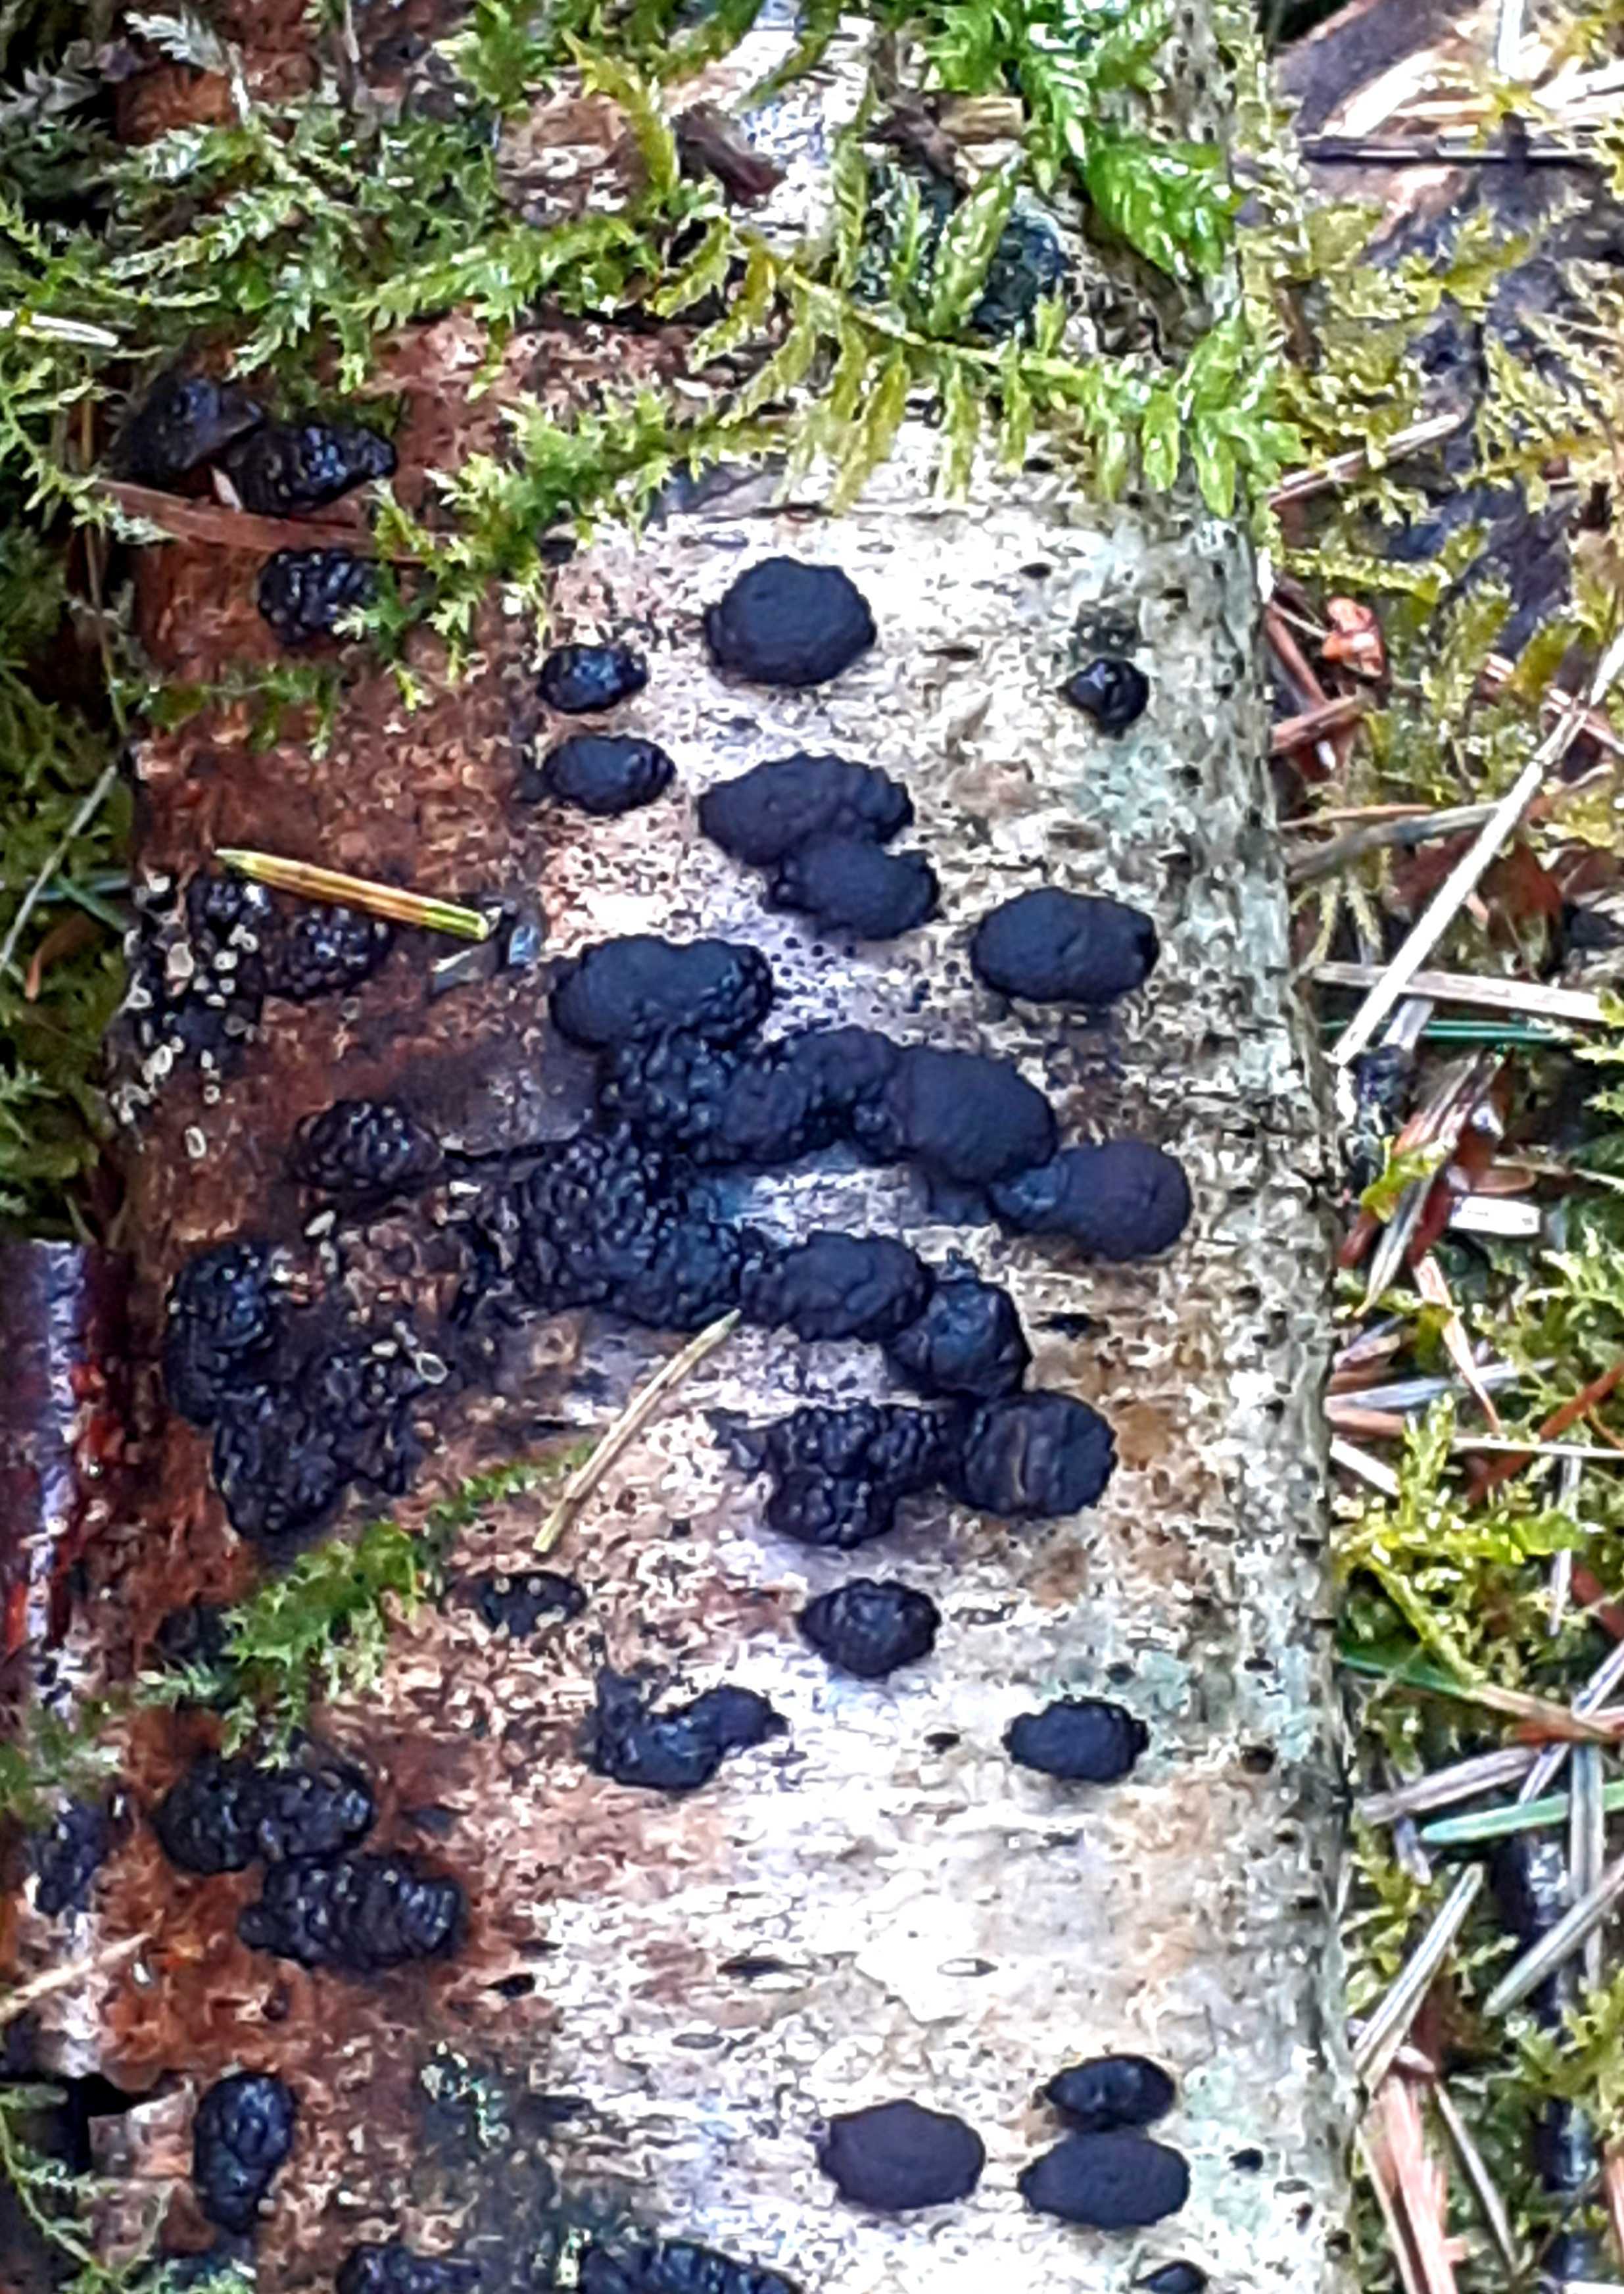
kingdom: Fungi
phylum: Ascomycota
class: Sordariomycetes
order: Xylariales
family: Hypoxylaceae
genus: Jackrogersella
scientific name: Jackrogersella multiformis
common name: foranderlig kulbær
